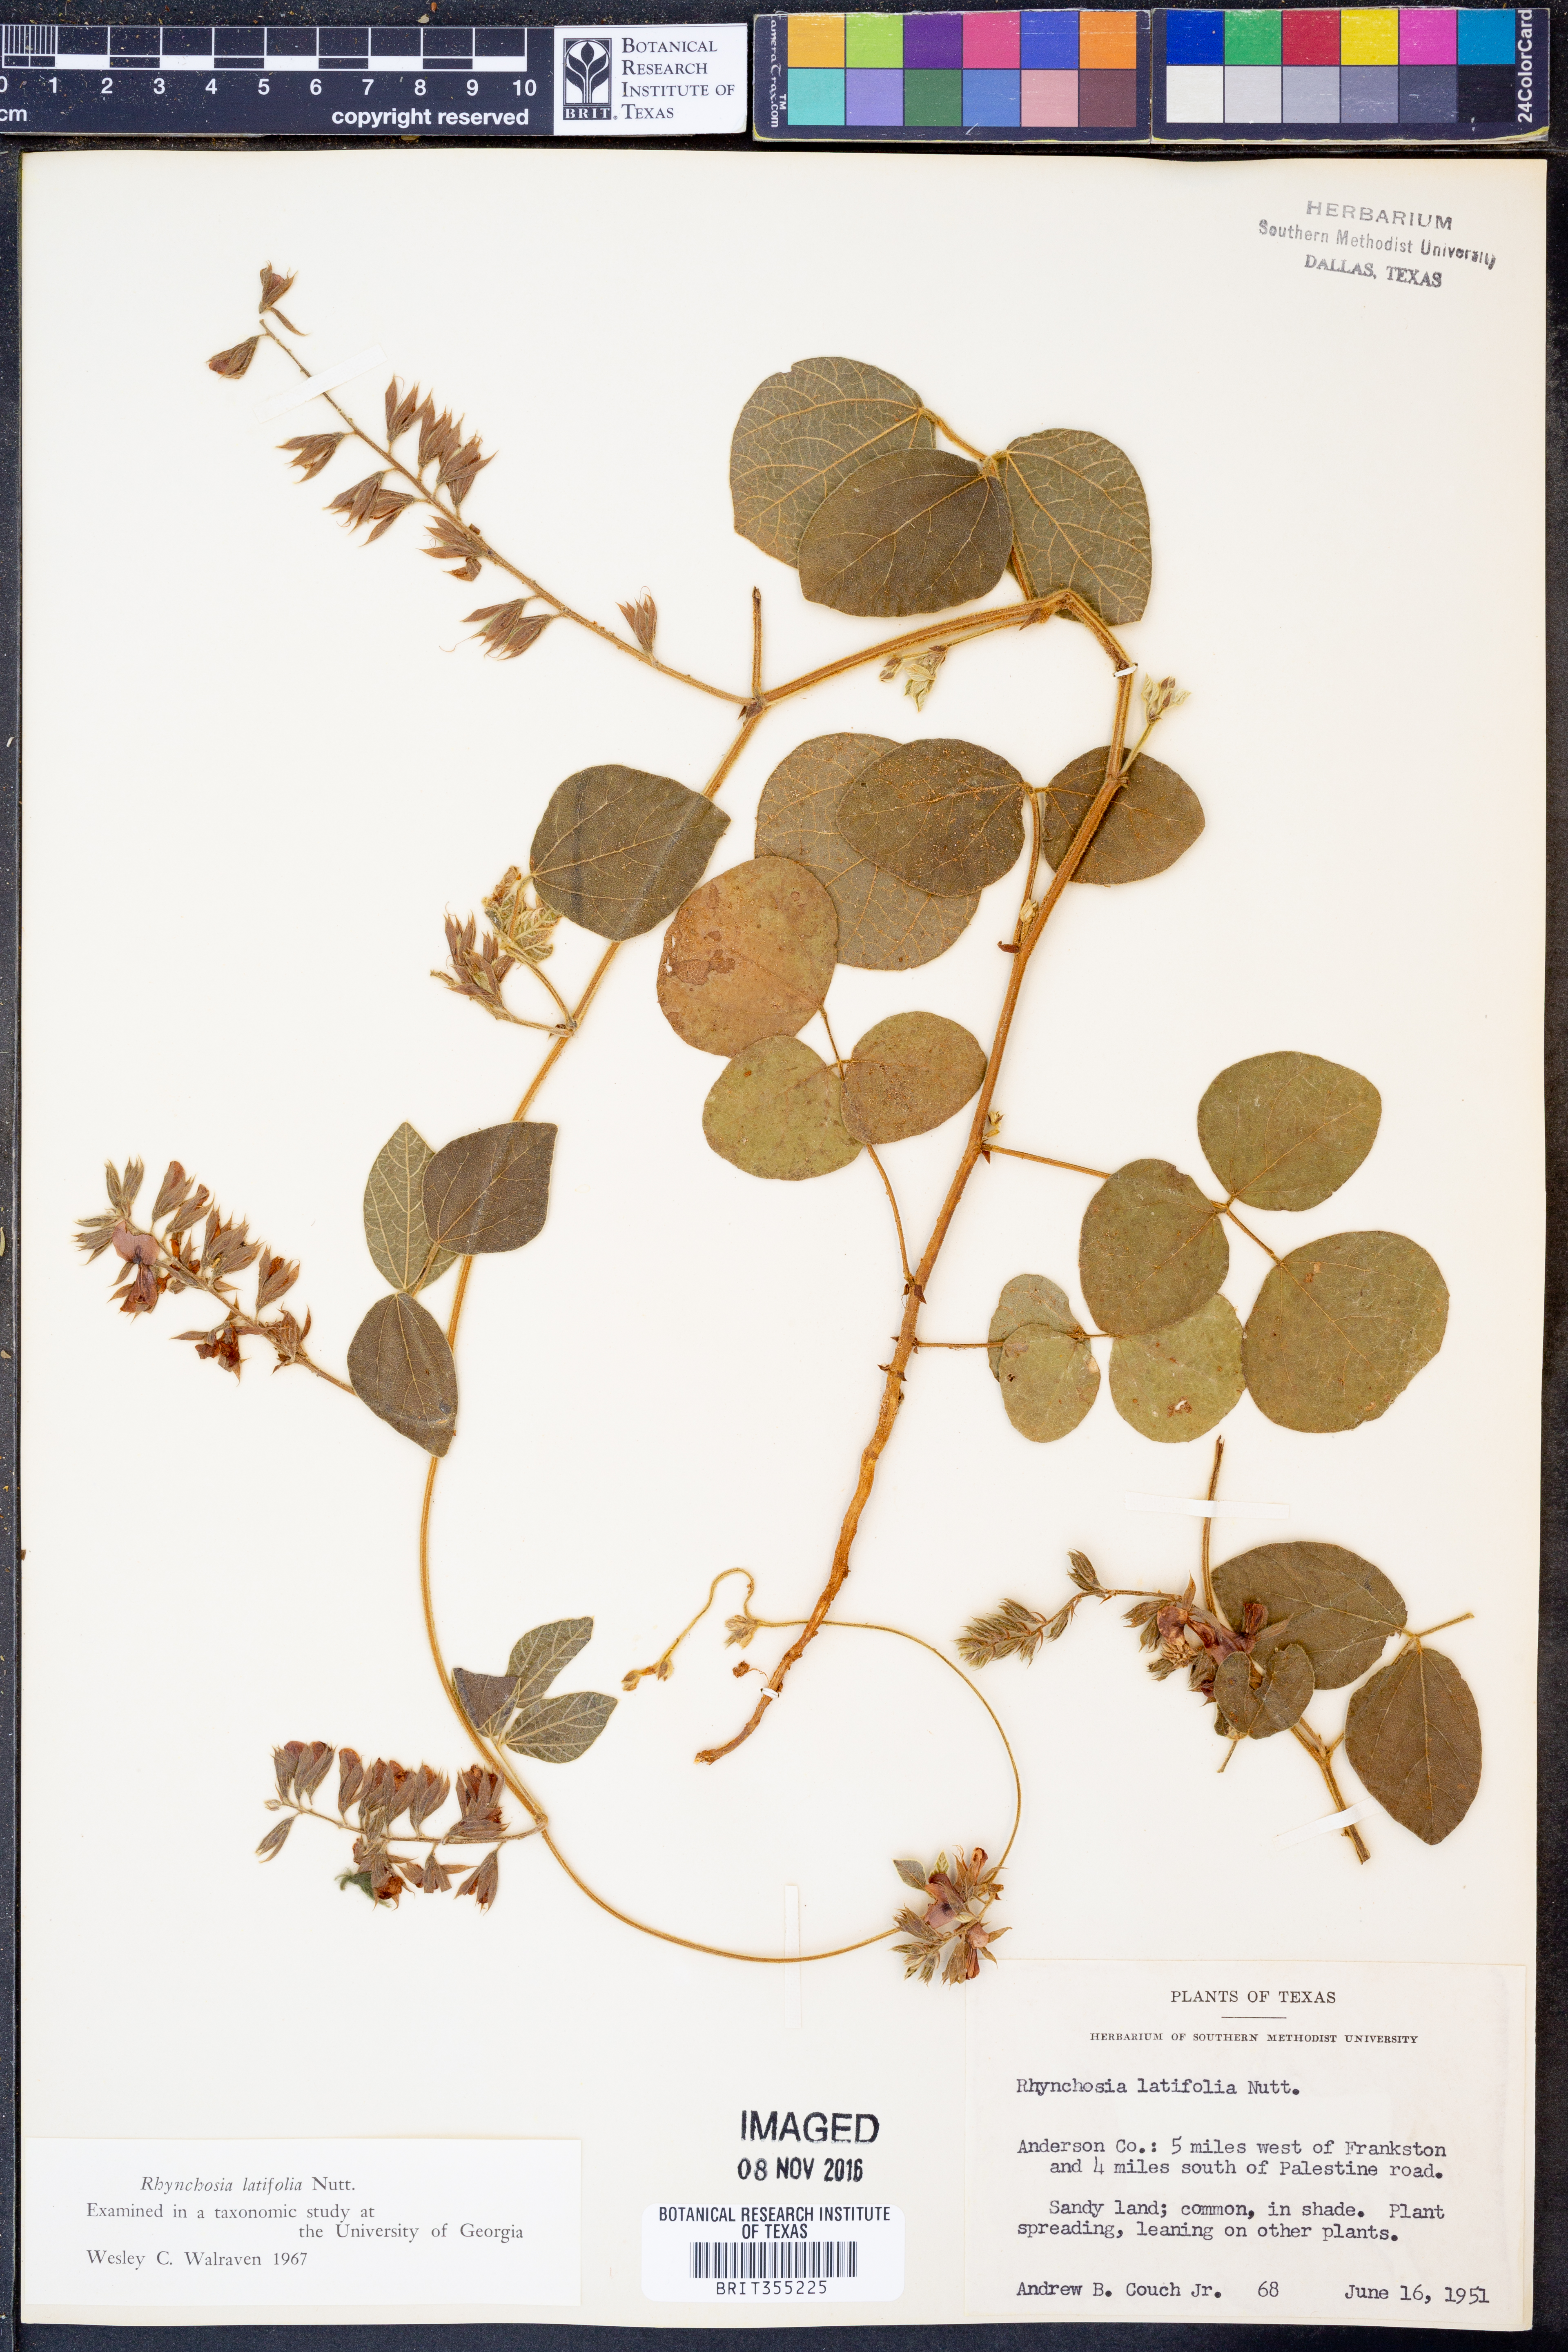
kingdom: Plantae
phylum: Tracheophyta
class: Magnoliopsida
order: Fabales
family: Fabaceae
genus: Rhynchosia
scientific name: Rhynchosia latifolia
